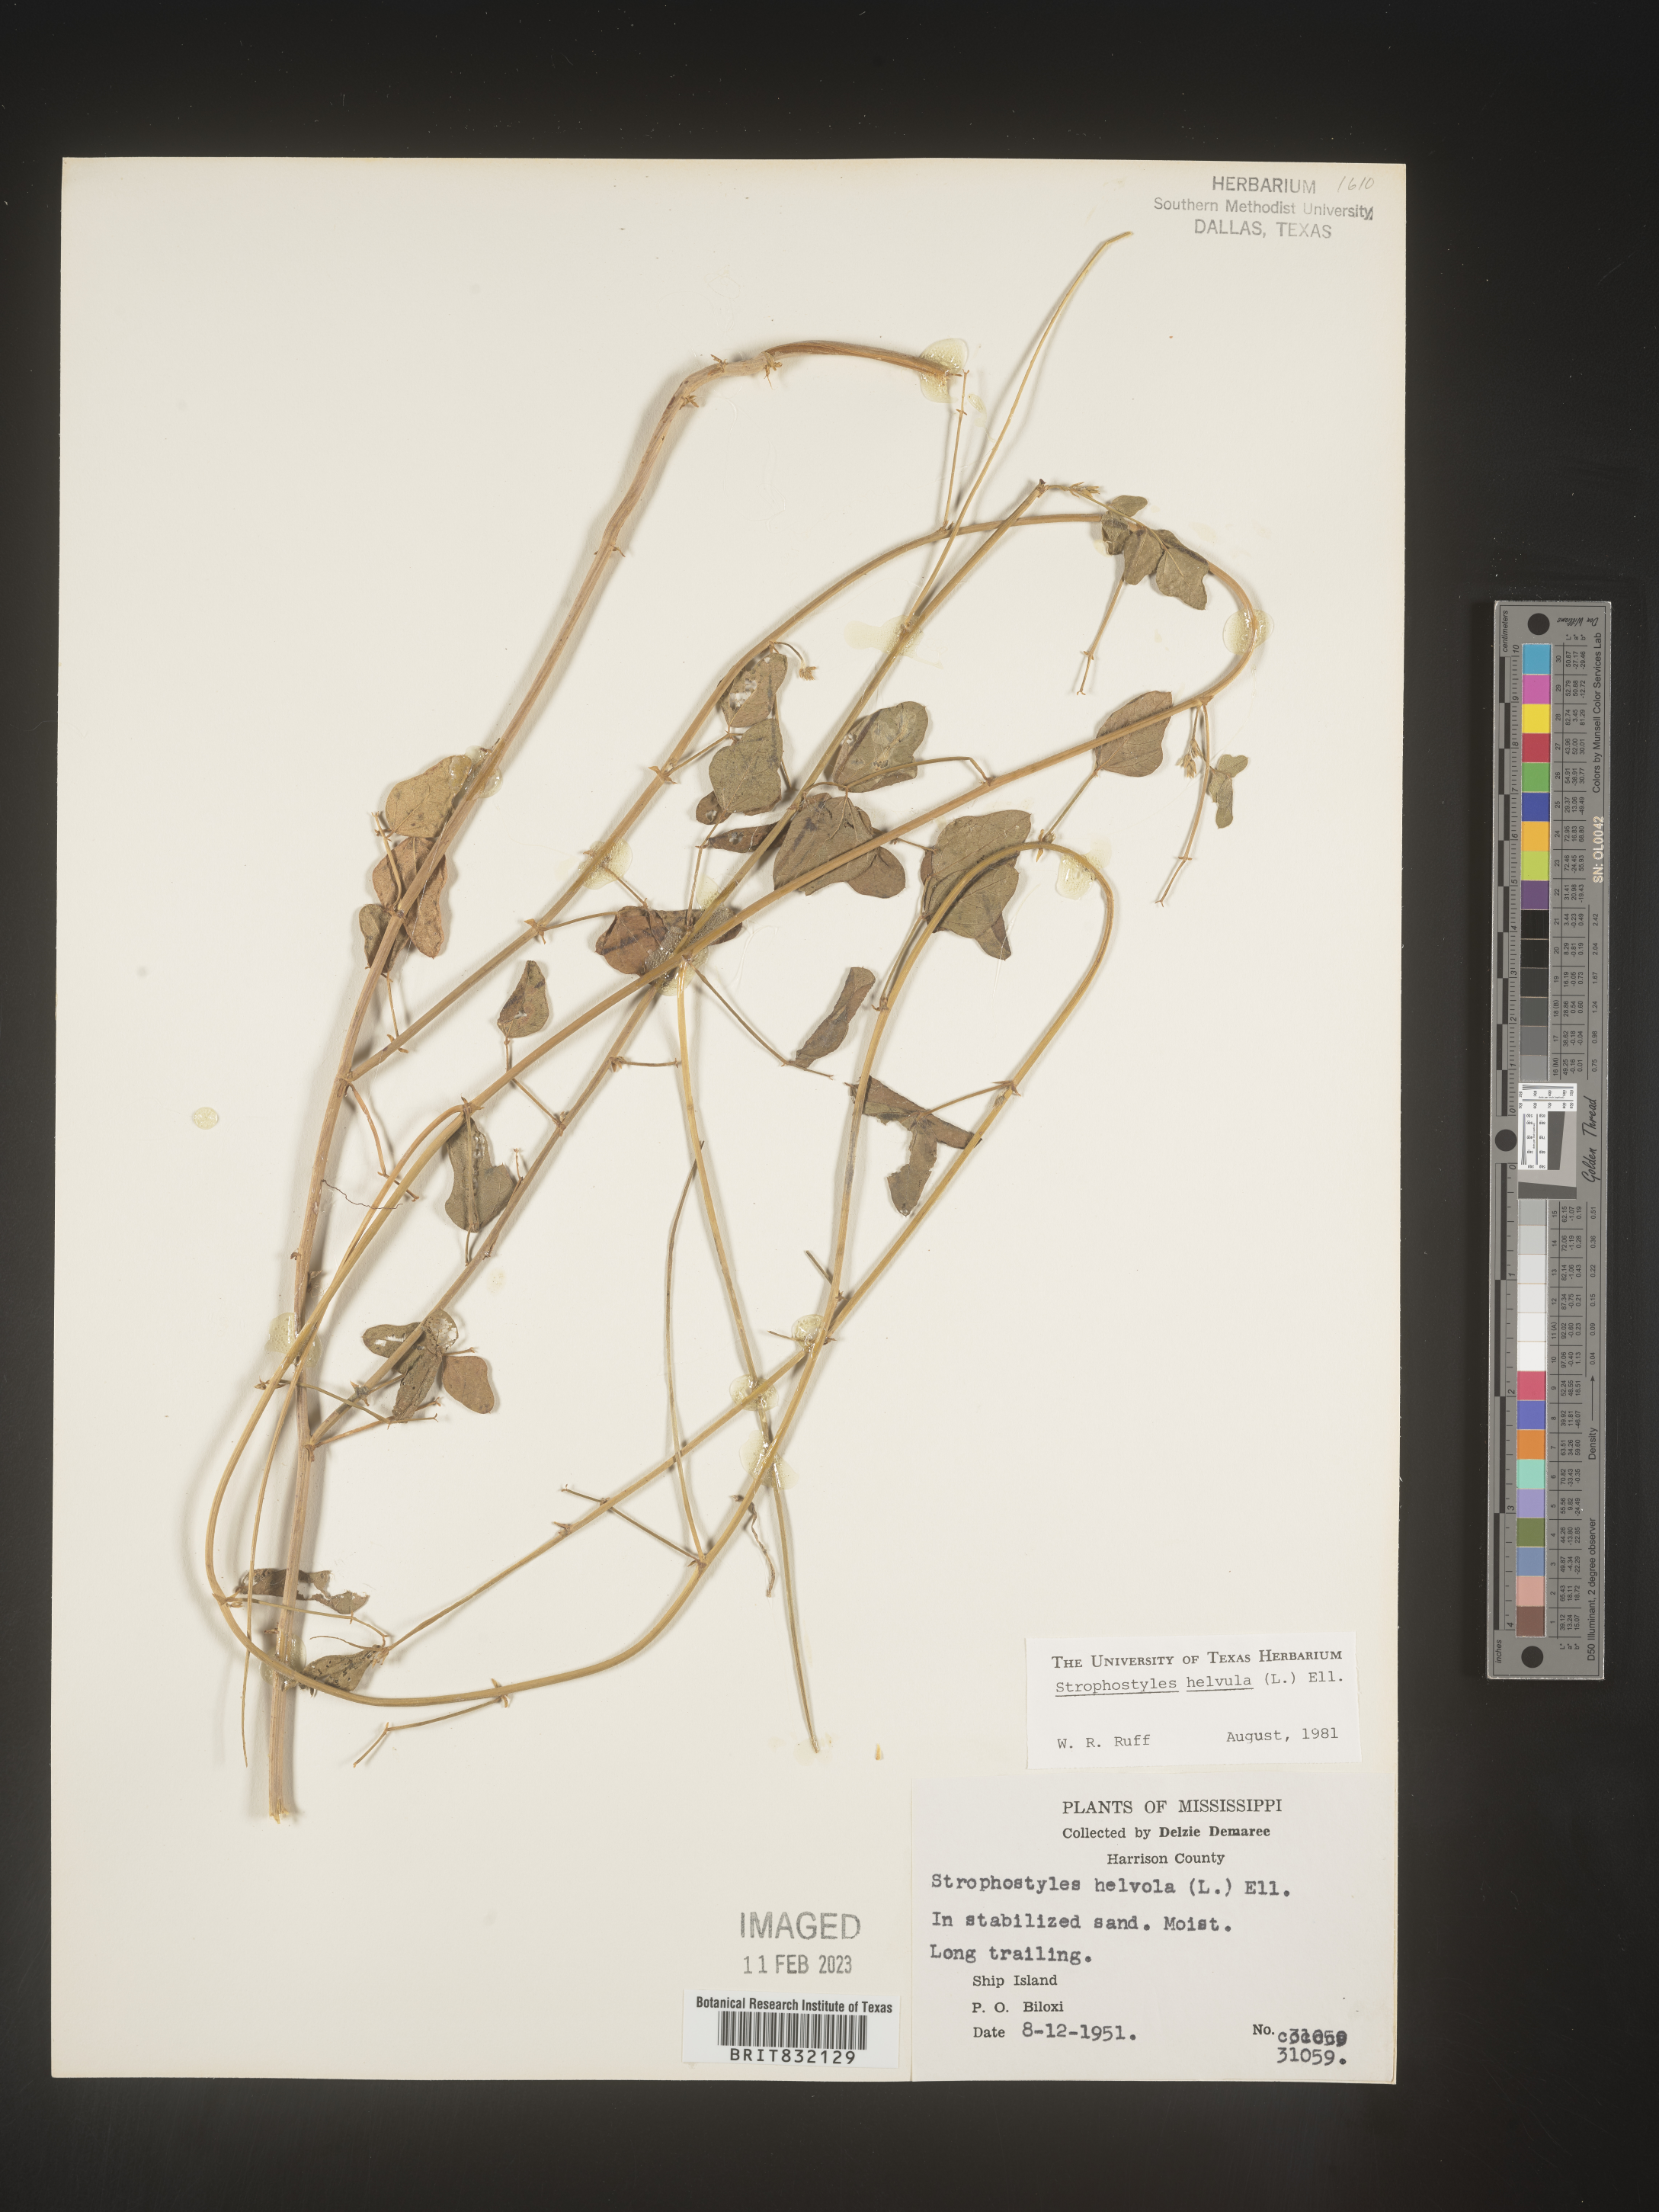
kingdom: Plantae
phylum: Tracheophyta
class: Magnoliopsida
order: Fabales
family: Fabaceae
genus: Strophostyles
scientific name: Strophostyles helvola
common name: Trailing wild bean
